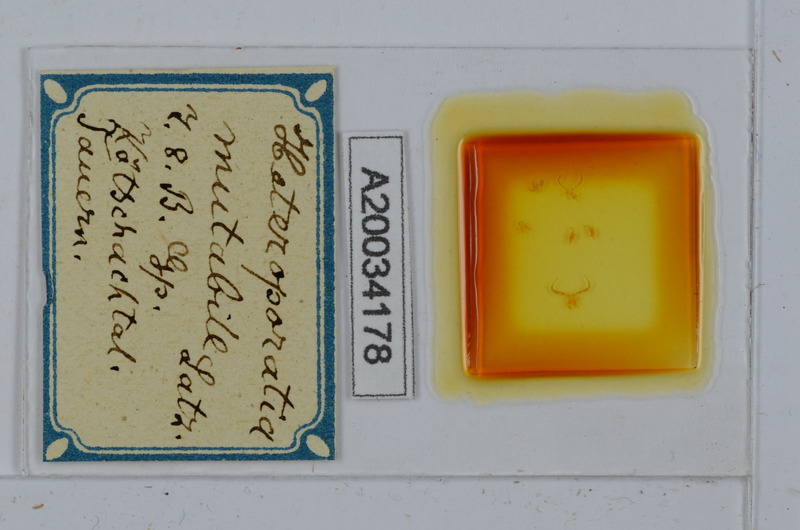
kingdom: Animalia
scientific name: Animalia
